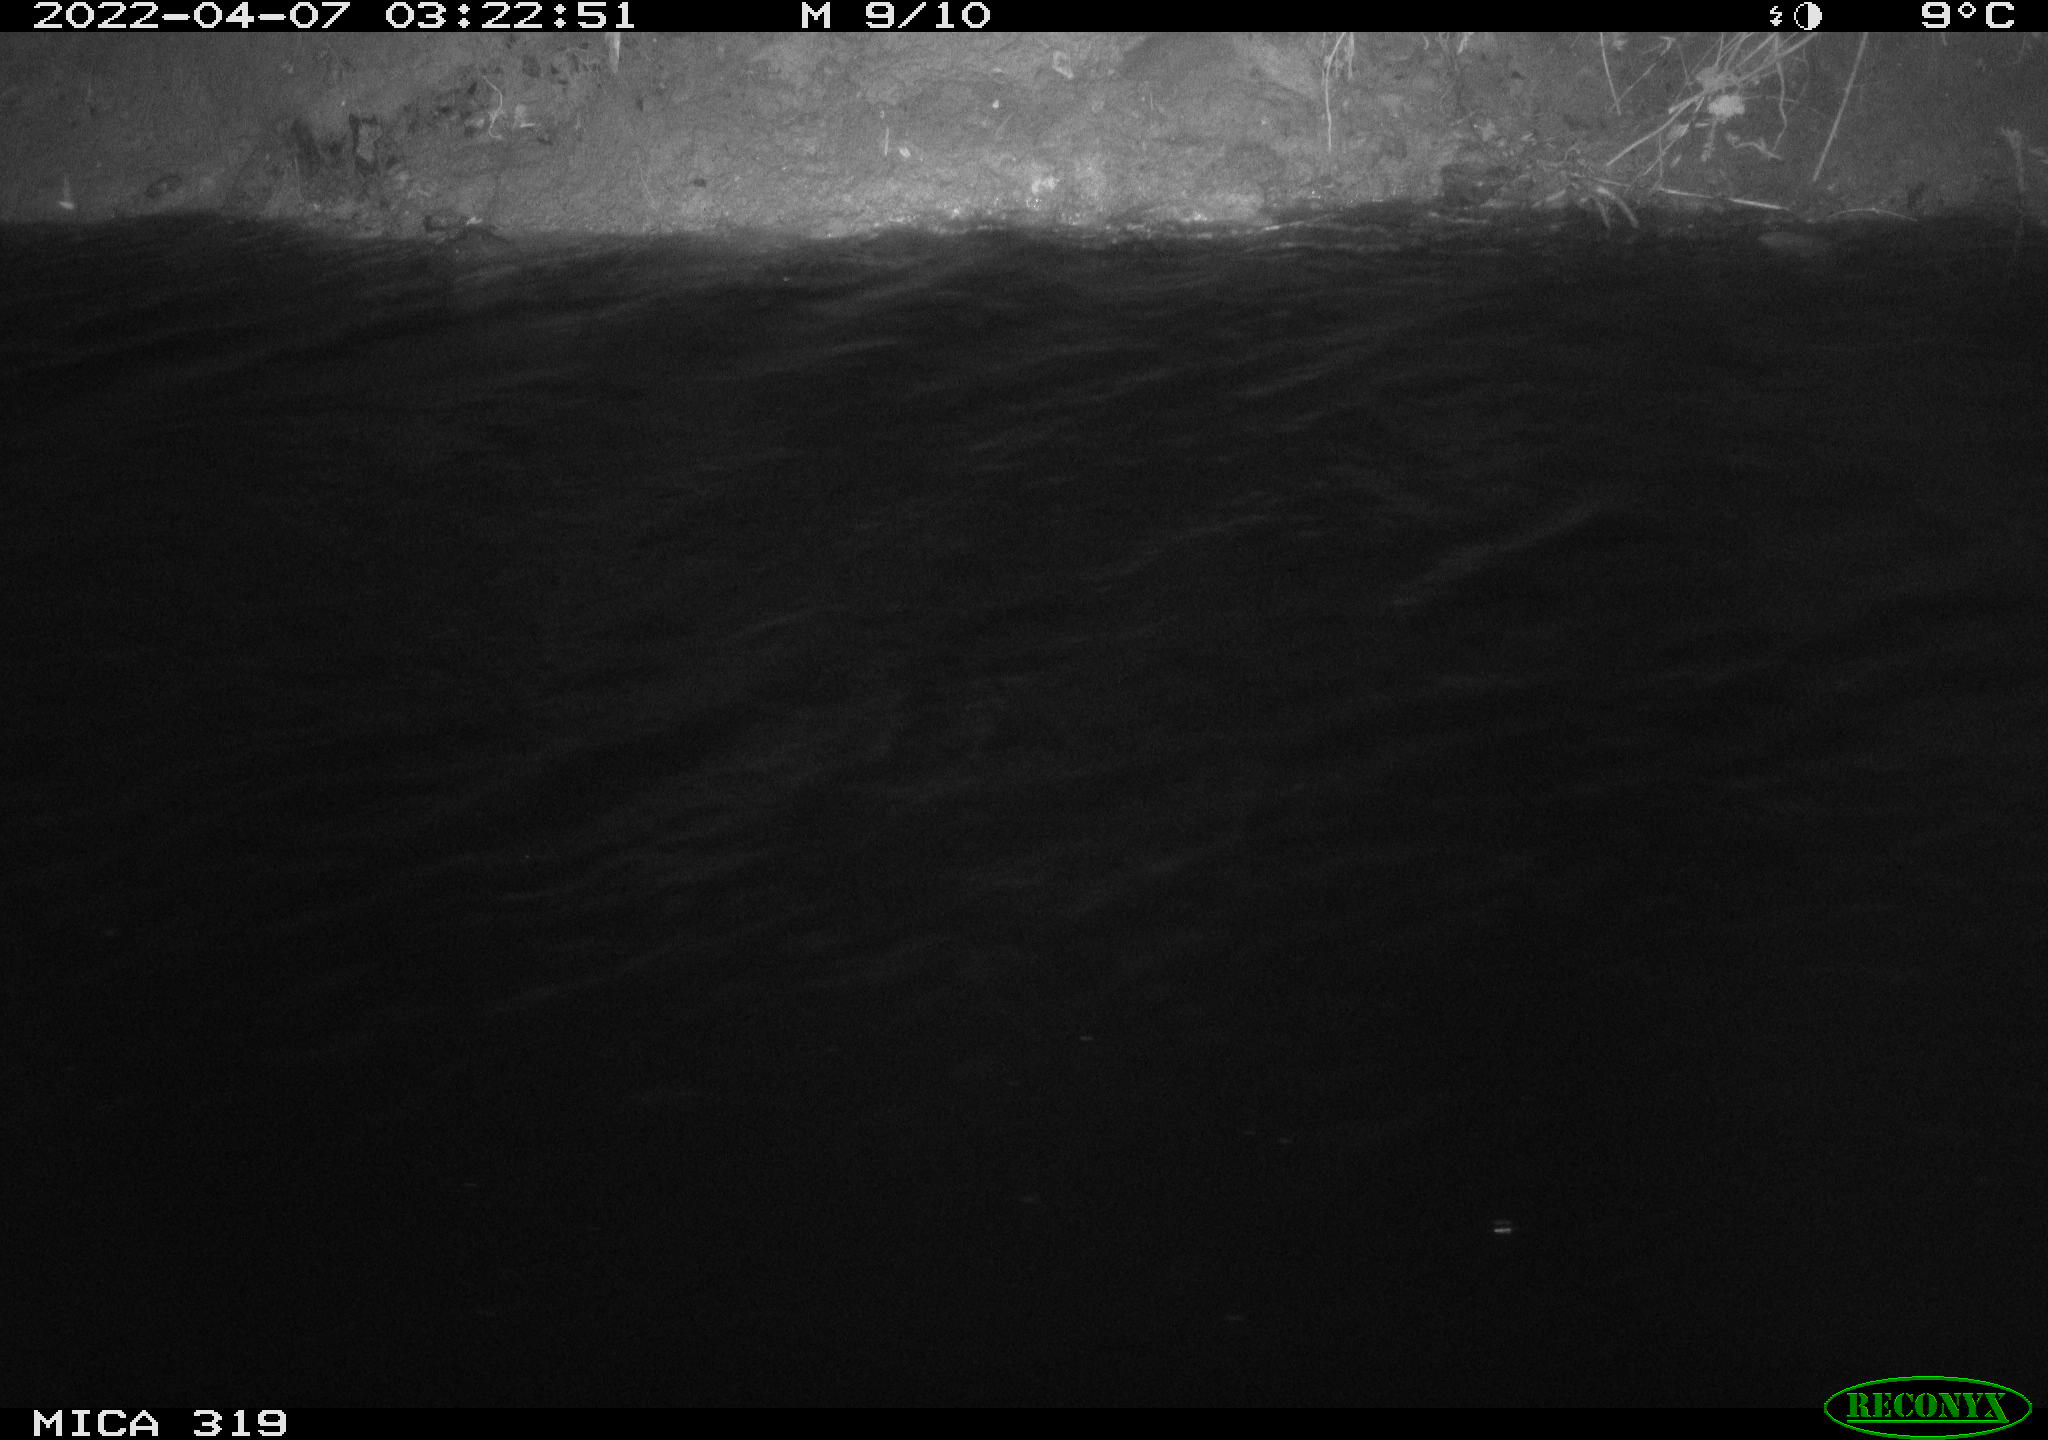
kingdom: Animalia
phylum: Chordata
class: Aves
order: Anseriformes
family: Anatidae
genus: Anas
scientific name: Anas platyrhynchos
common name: Mallard
